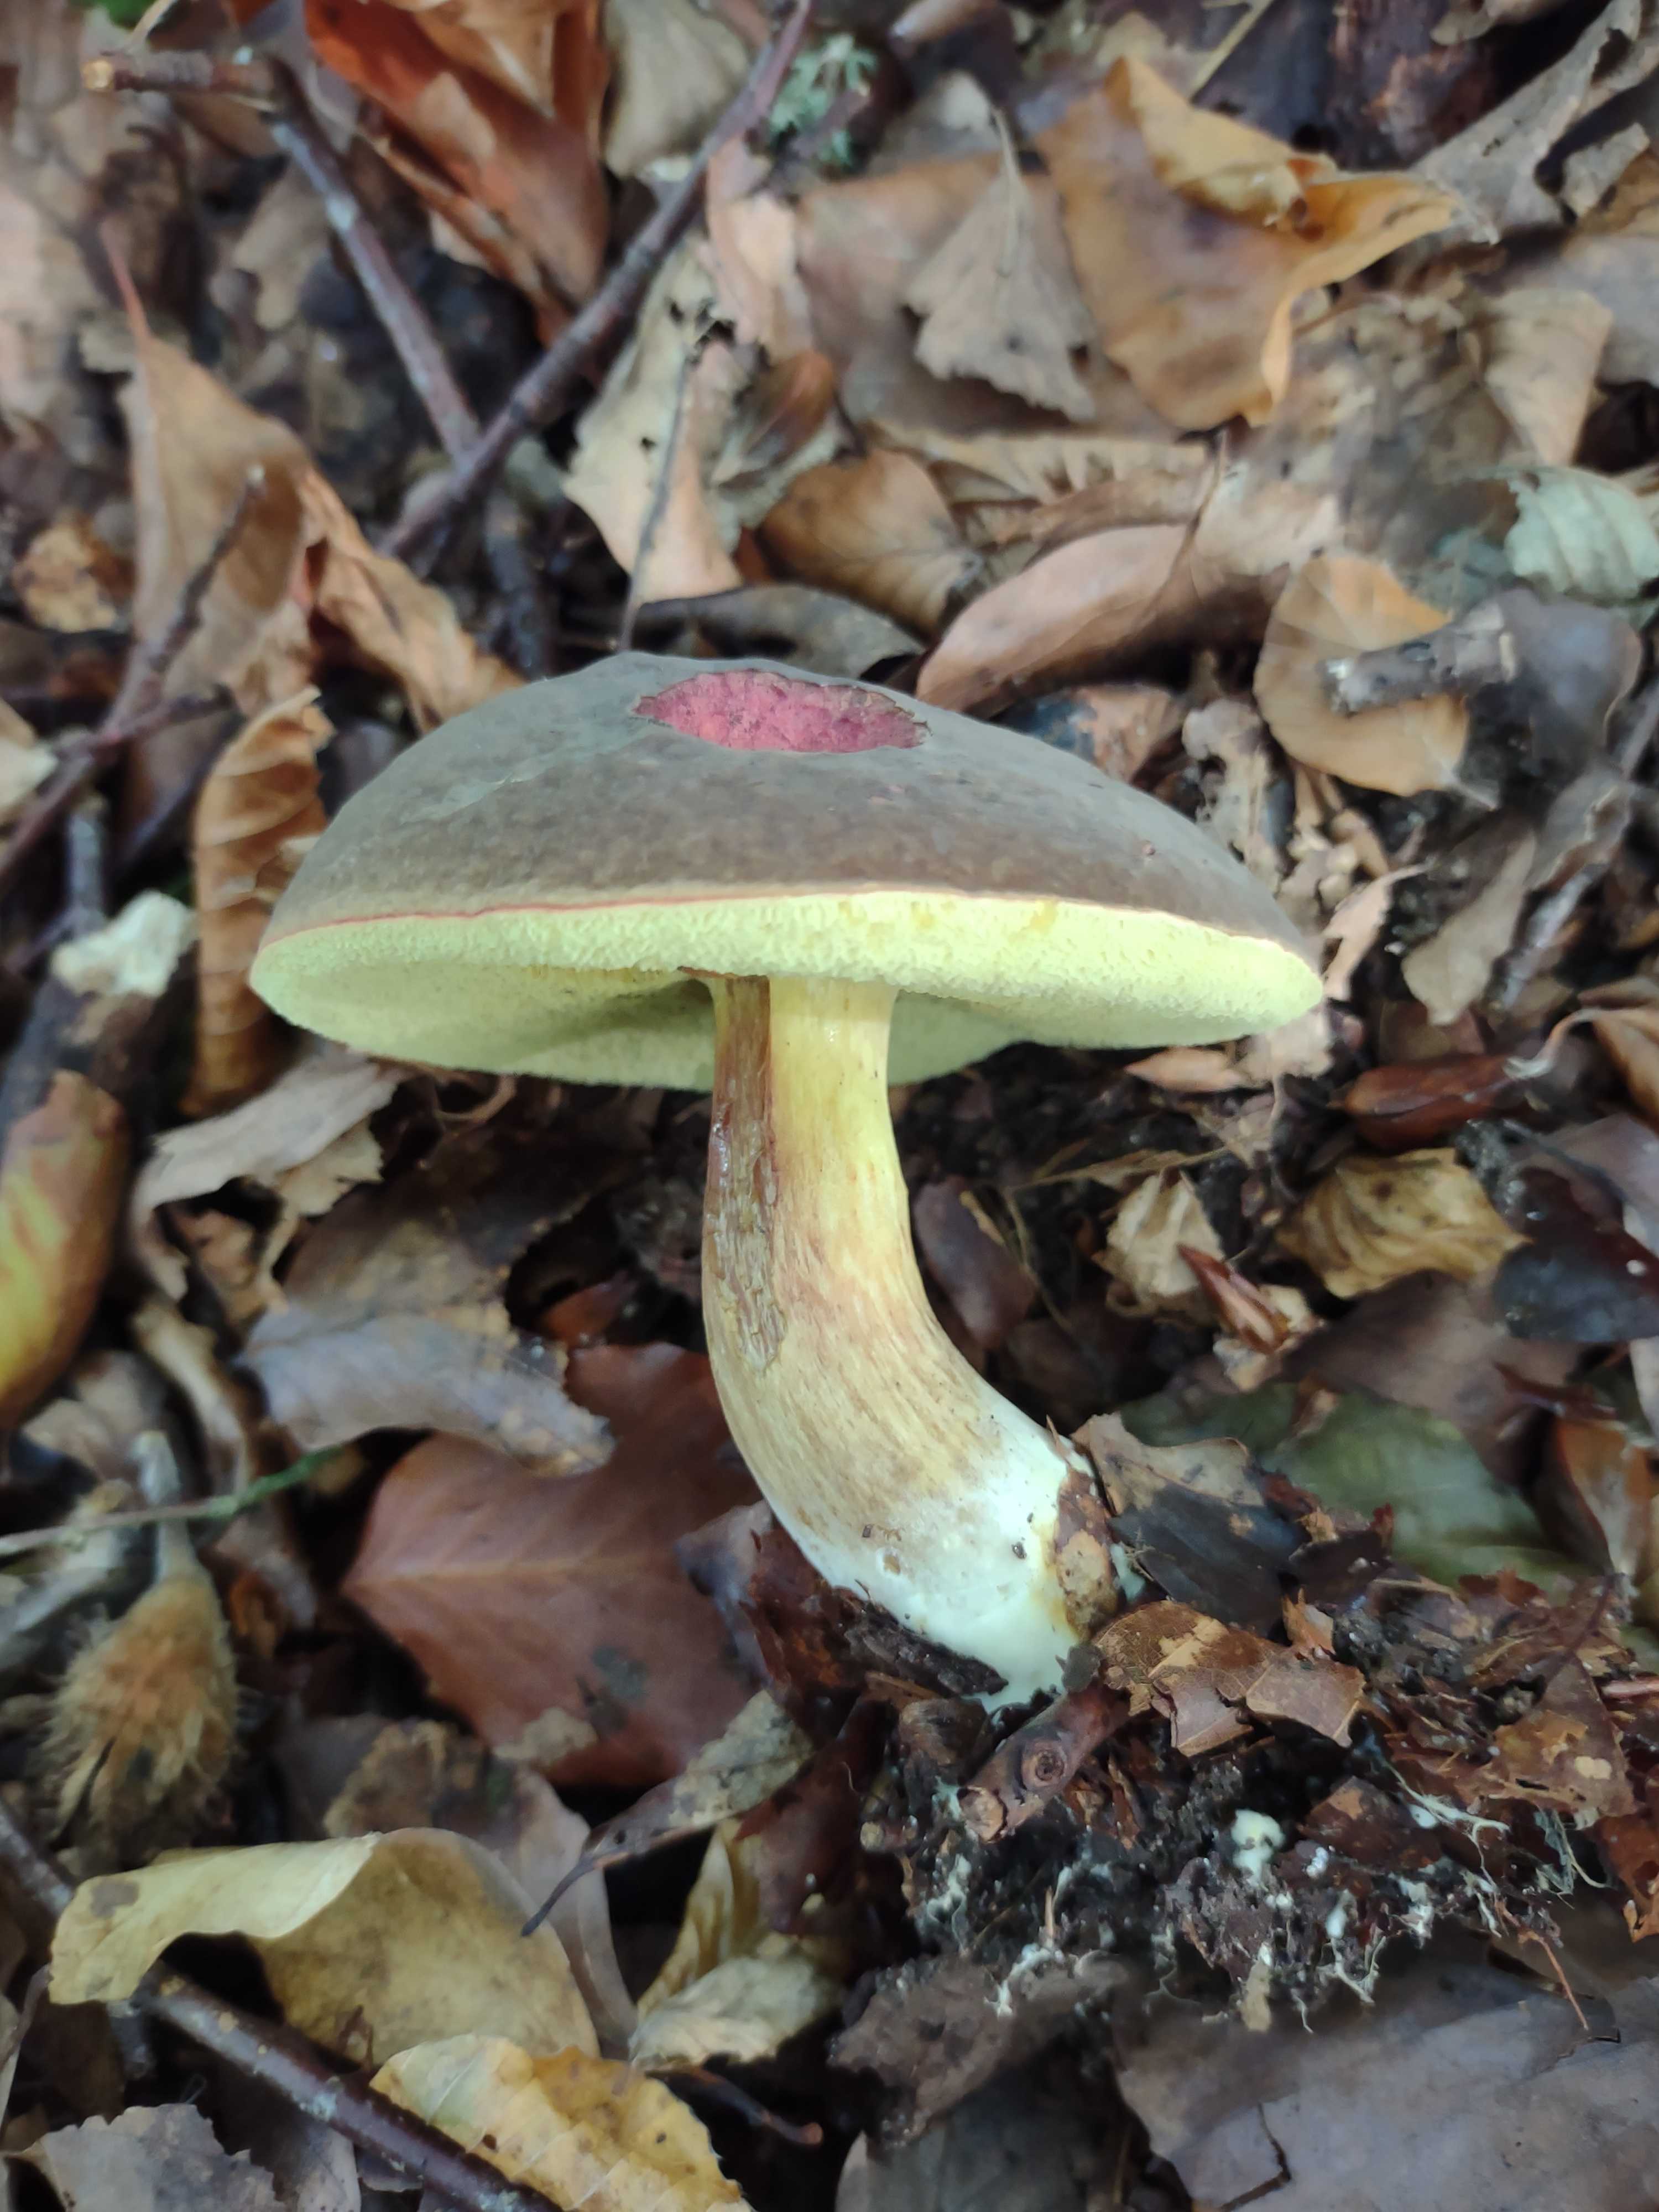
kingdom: Fungi
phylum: Basidiomycota
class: Agaricomycetes
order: Boletales
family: Boletaceae
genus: Xerocomellus
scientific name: Xerocomellus pruinatus
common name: dugget rørhat
